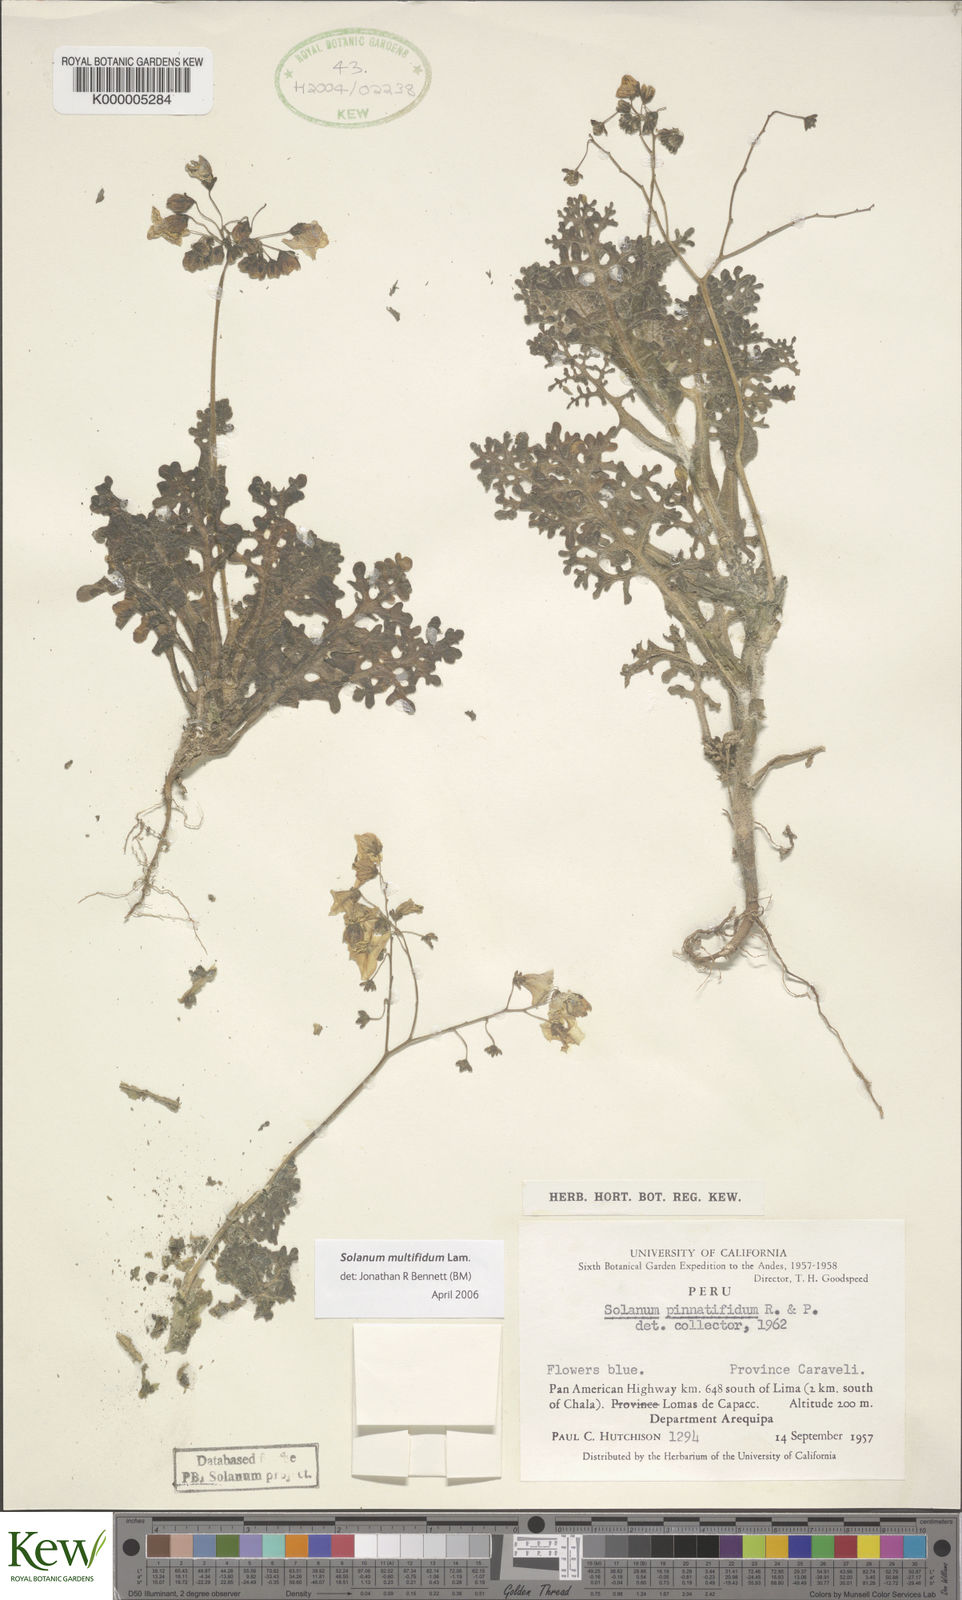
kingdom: Plantae
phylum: Tracheophyta
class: Magnoliopsida
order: Solanales
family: Solanaceae
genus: Solanum
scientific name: Solanum multifidum
